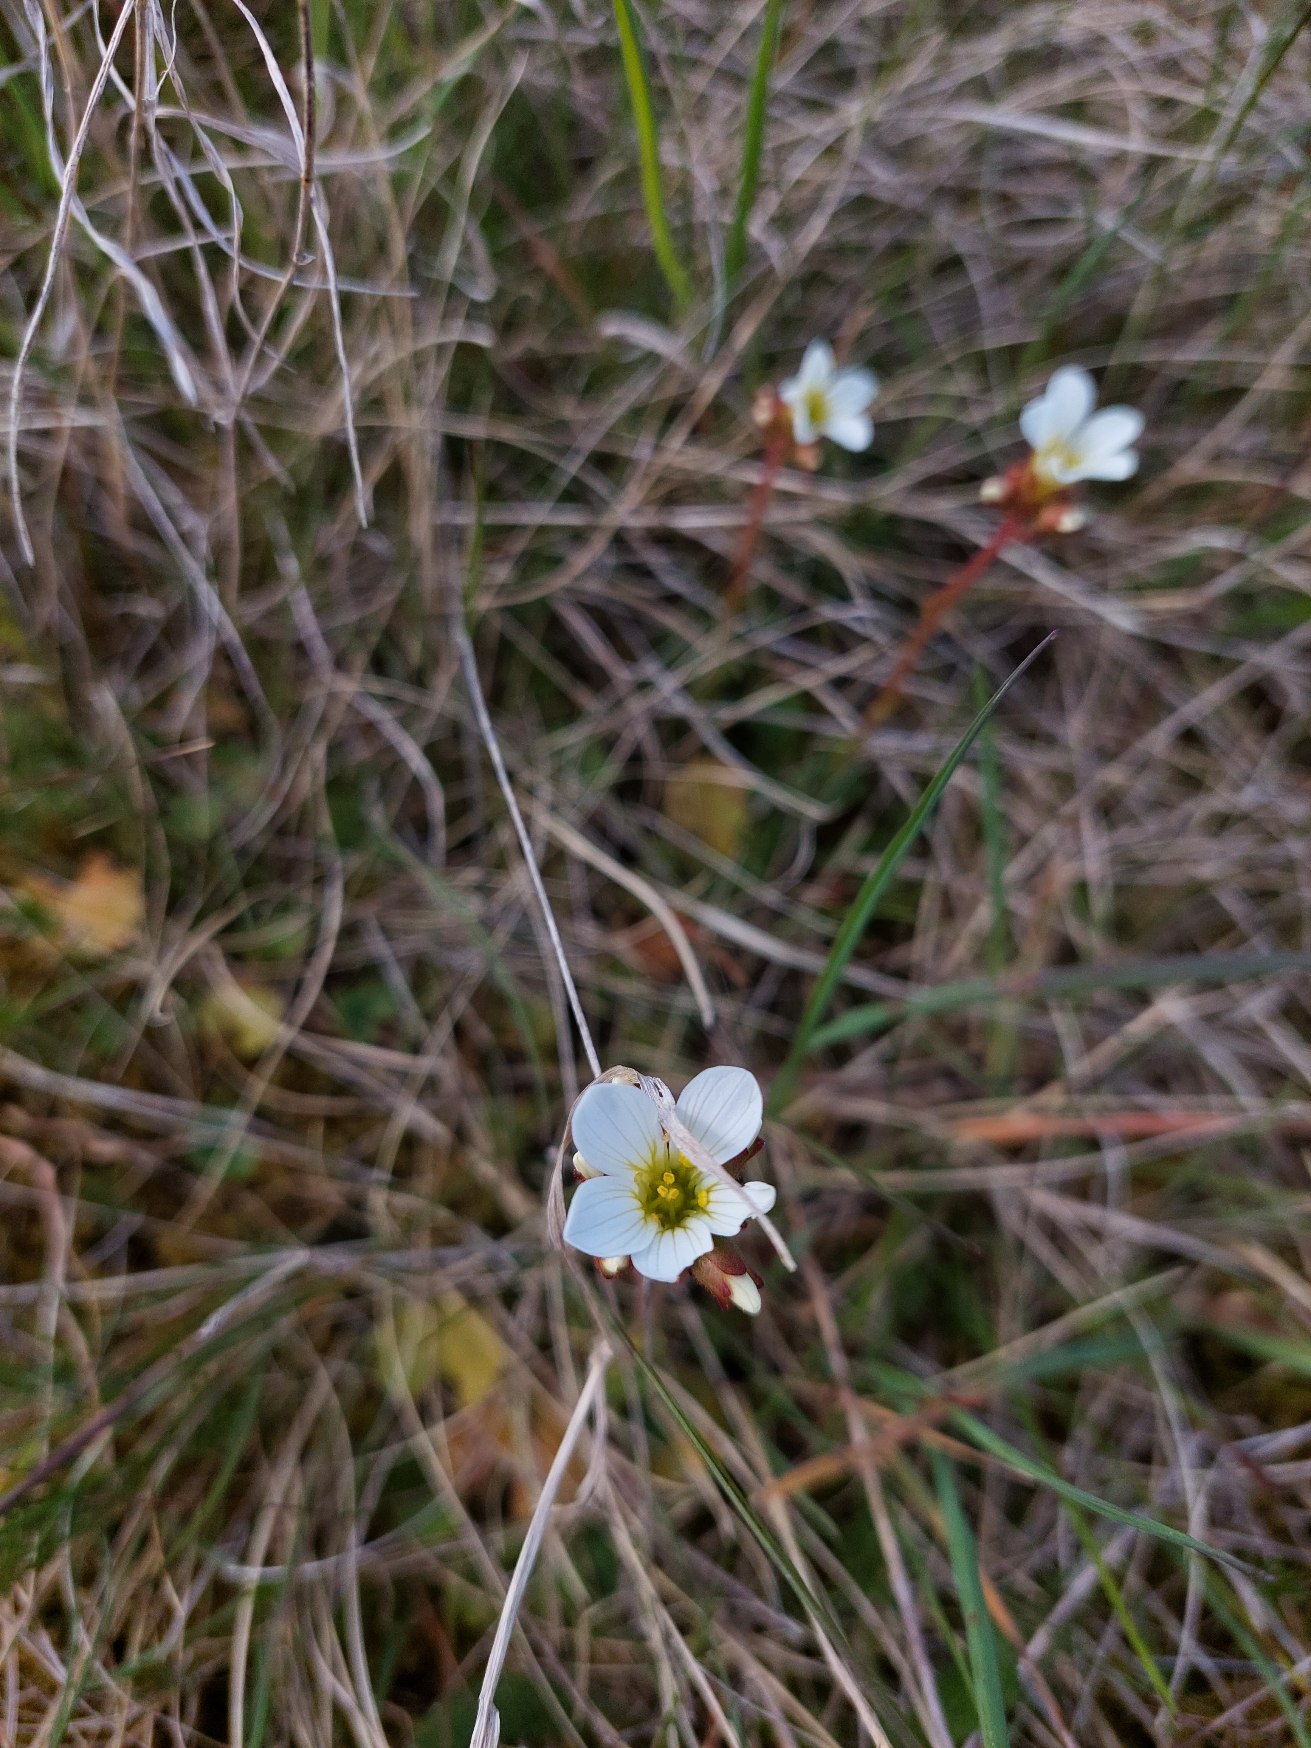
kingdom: Plantae
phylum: Tracheophyta
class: Magnoliopsida
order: Saxifragales
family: Saxifragaceae
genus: Saxifraga
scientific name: Saxifraga granulata
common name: Kornet stenbræk
